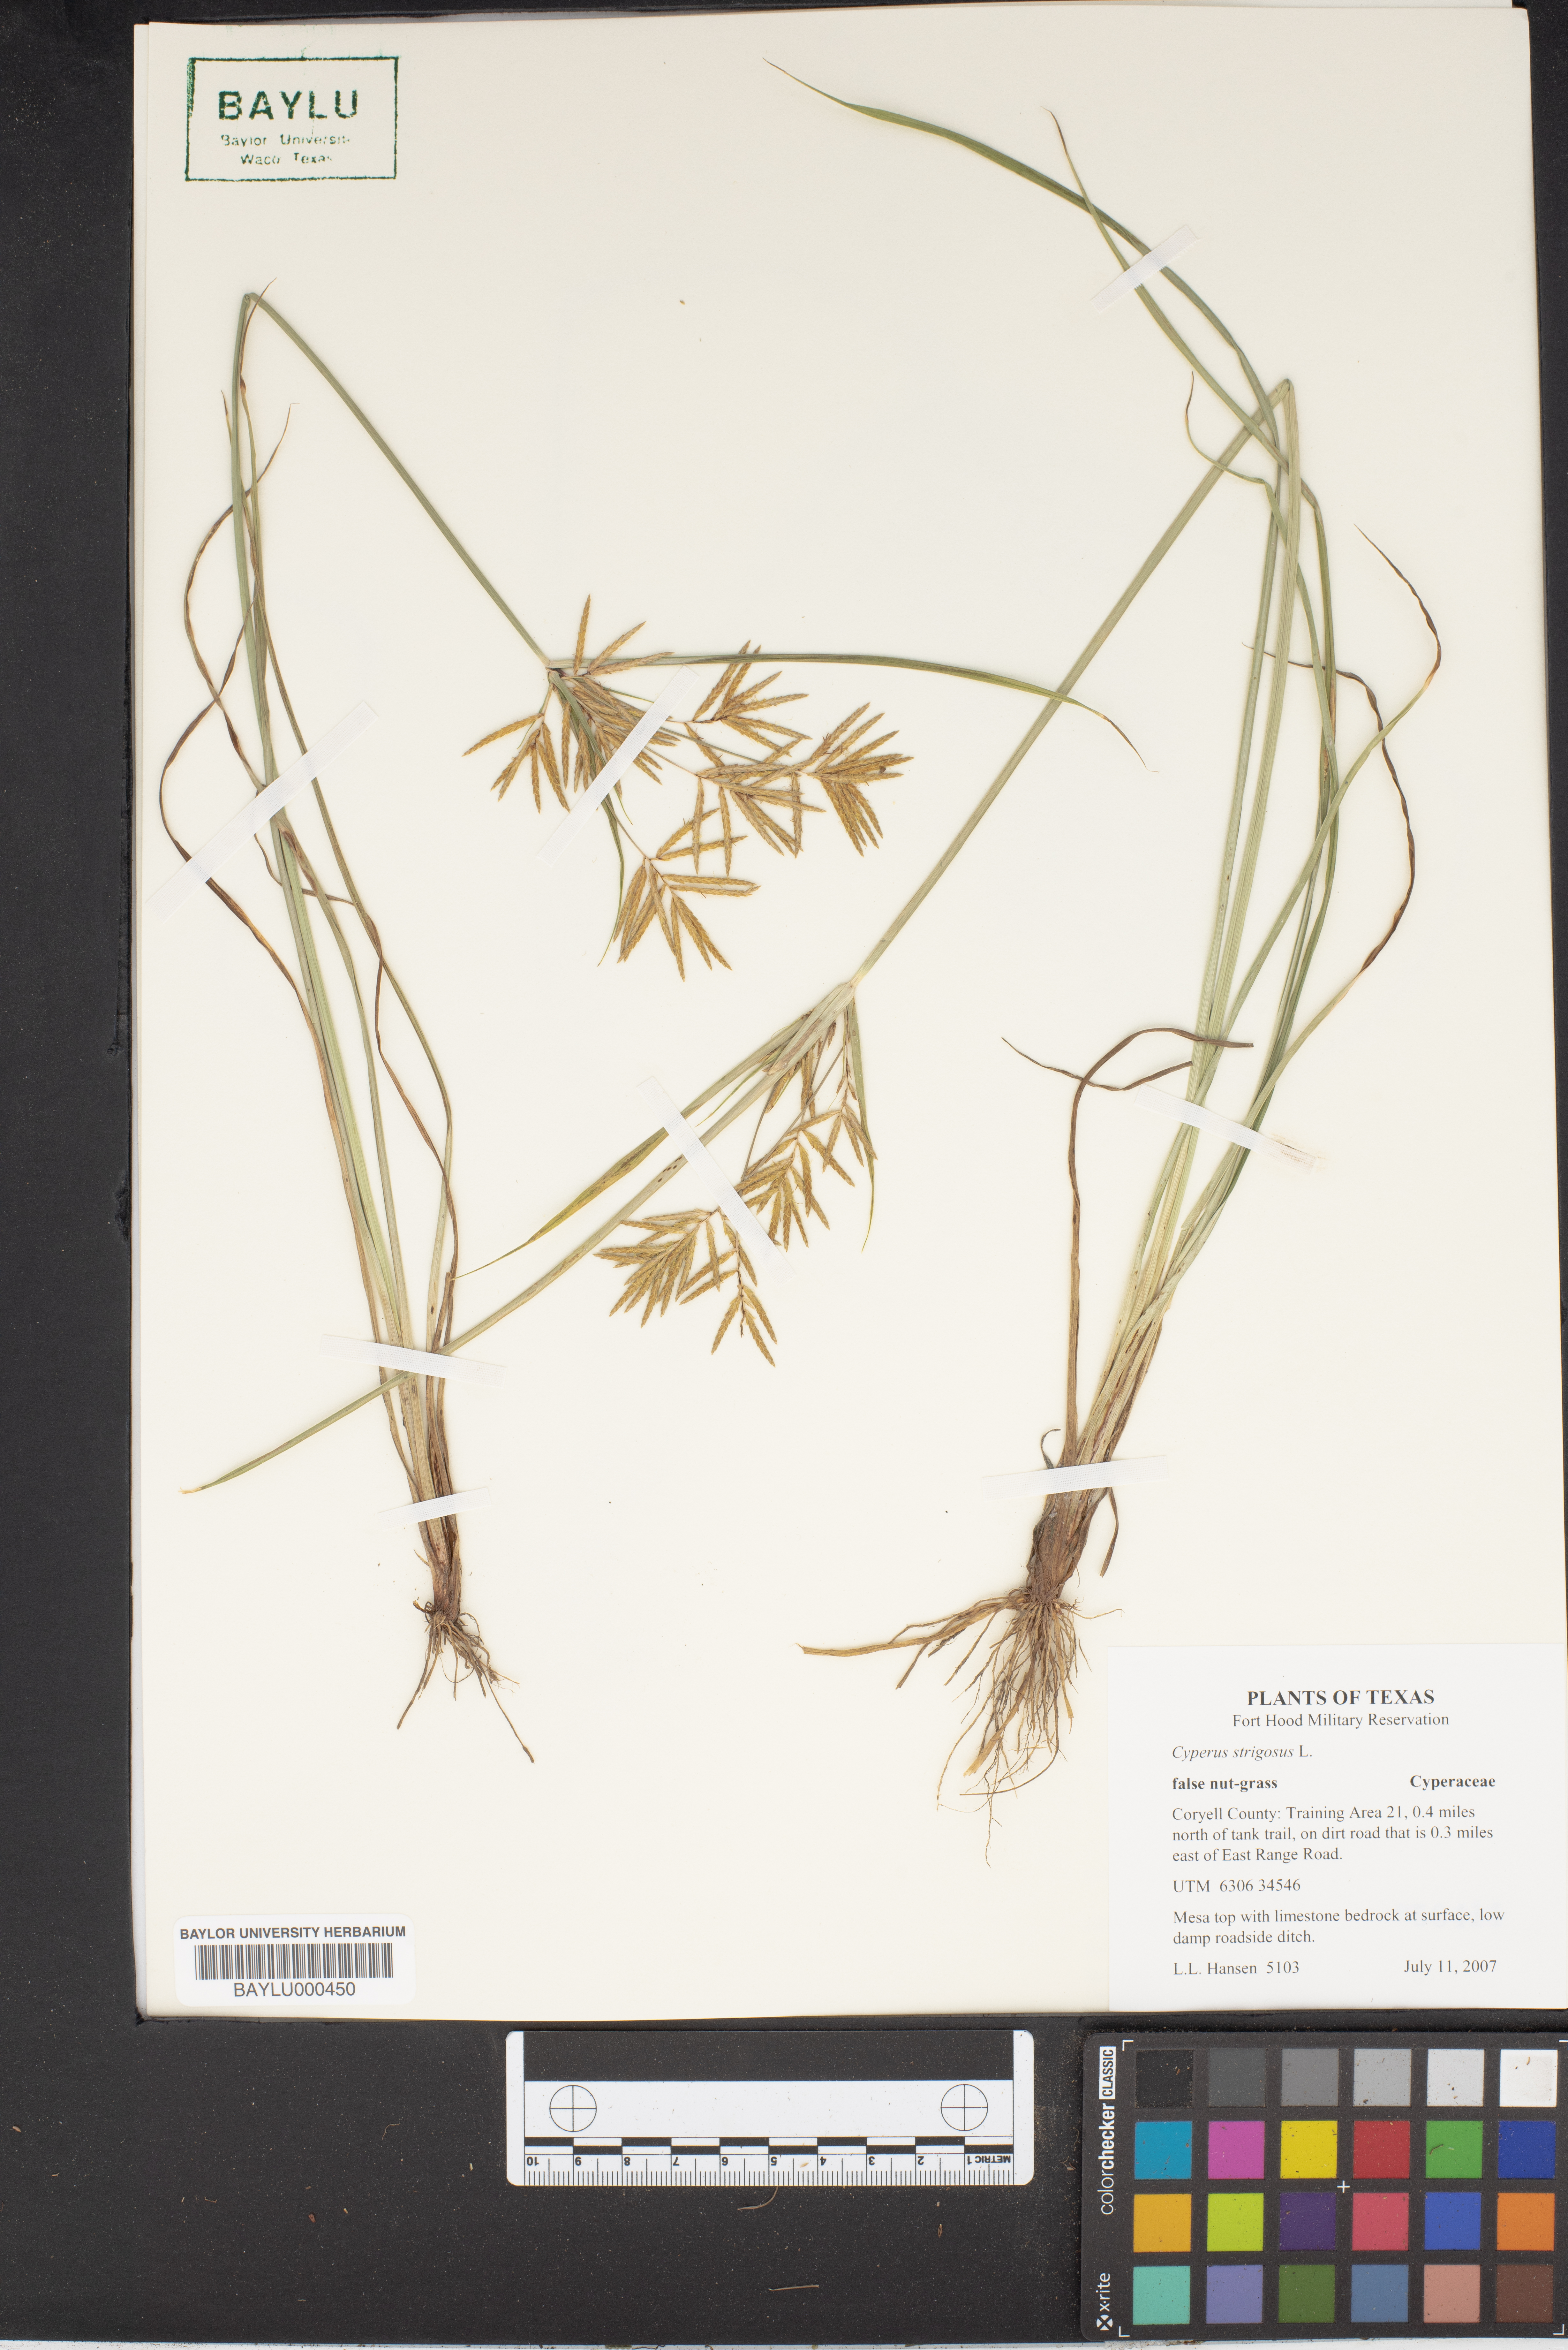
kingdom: Plantae
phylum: Tracheophyta
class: Liliopsida
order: Poales
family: Cyperaceae
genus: Cyperus
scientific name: Cyperus strigosus
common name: False nutsedge
